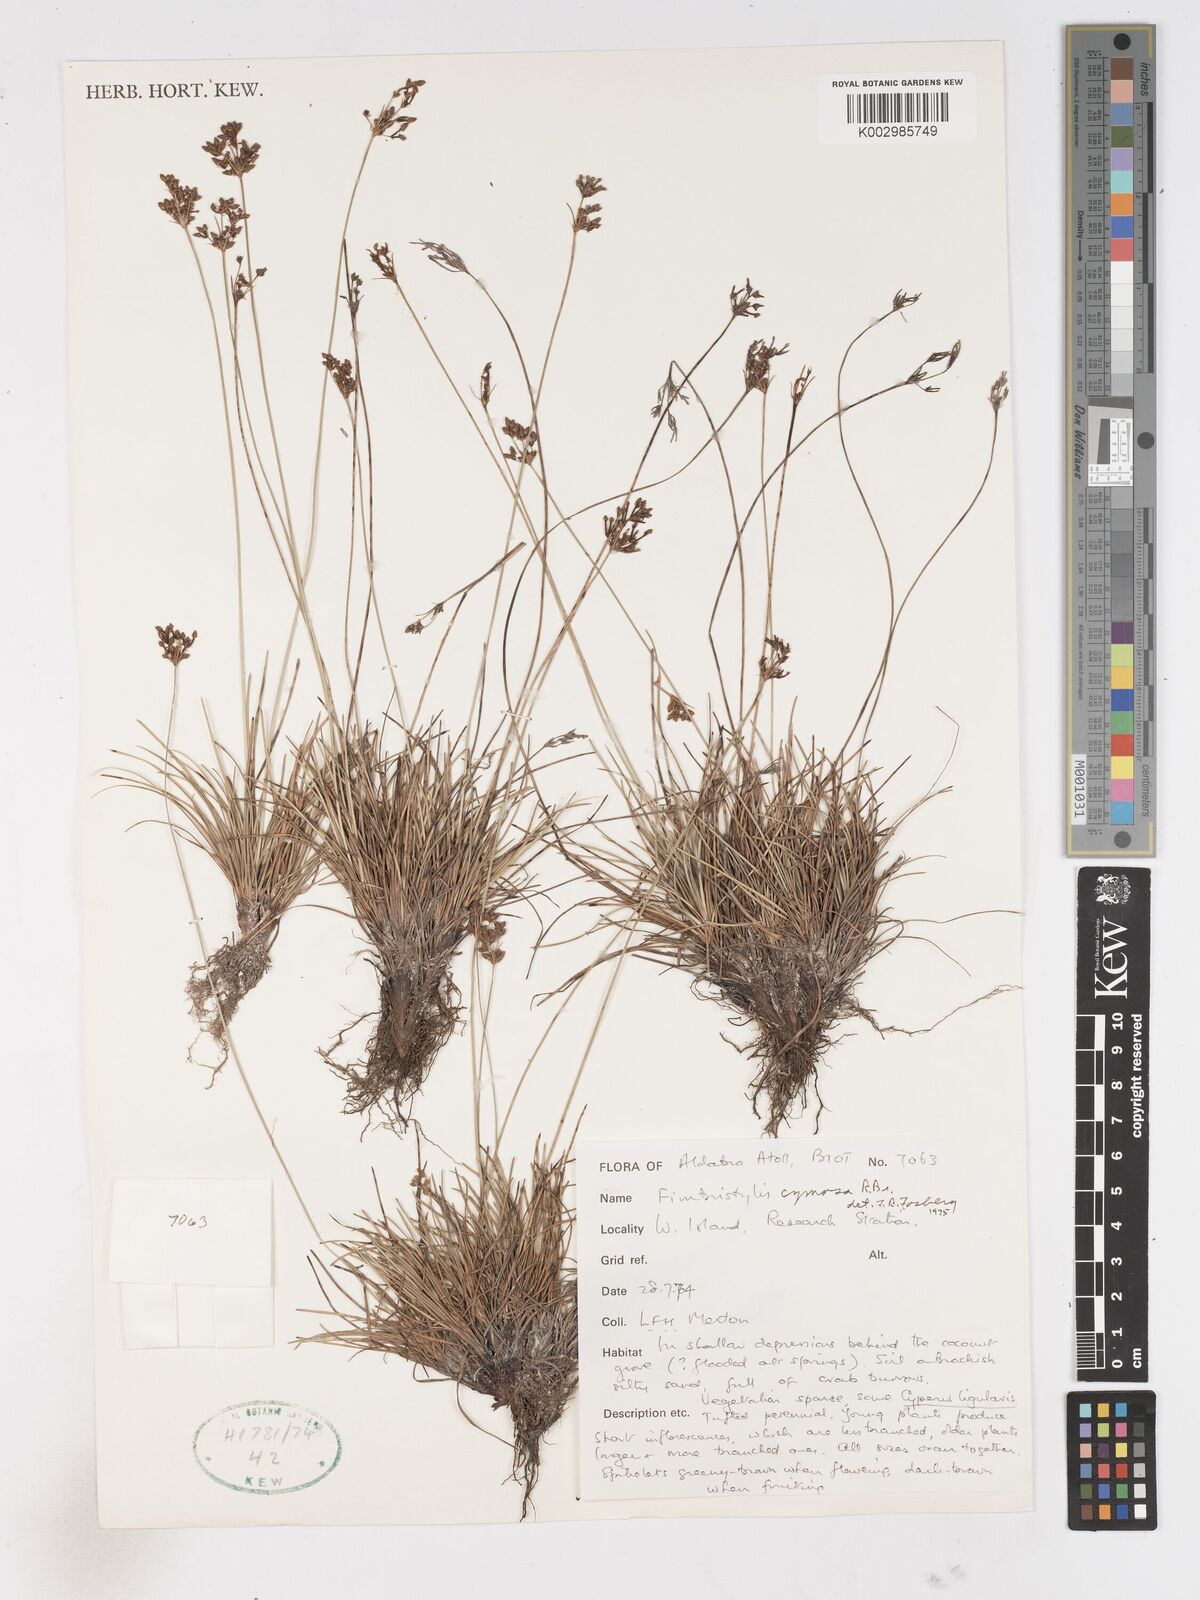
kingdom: Plantae
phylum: Tracheophyta
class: Liliopsida
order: Poales
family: Cyperaceae
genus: Fimbristylis
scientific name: Fimbristylis cymosa
